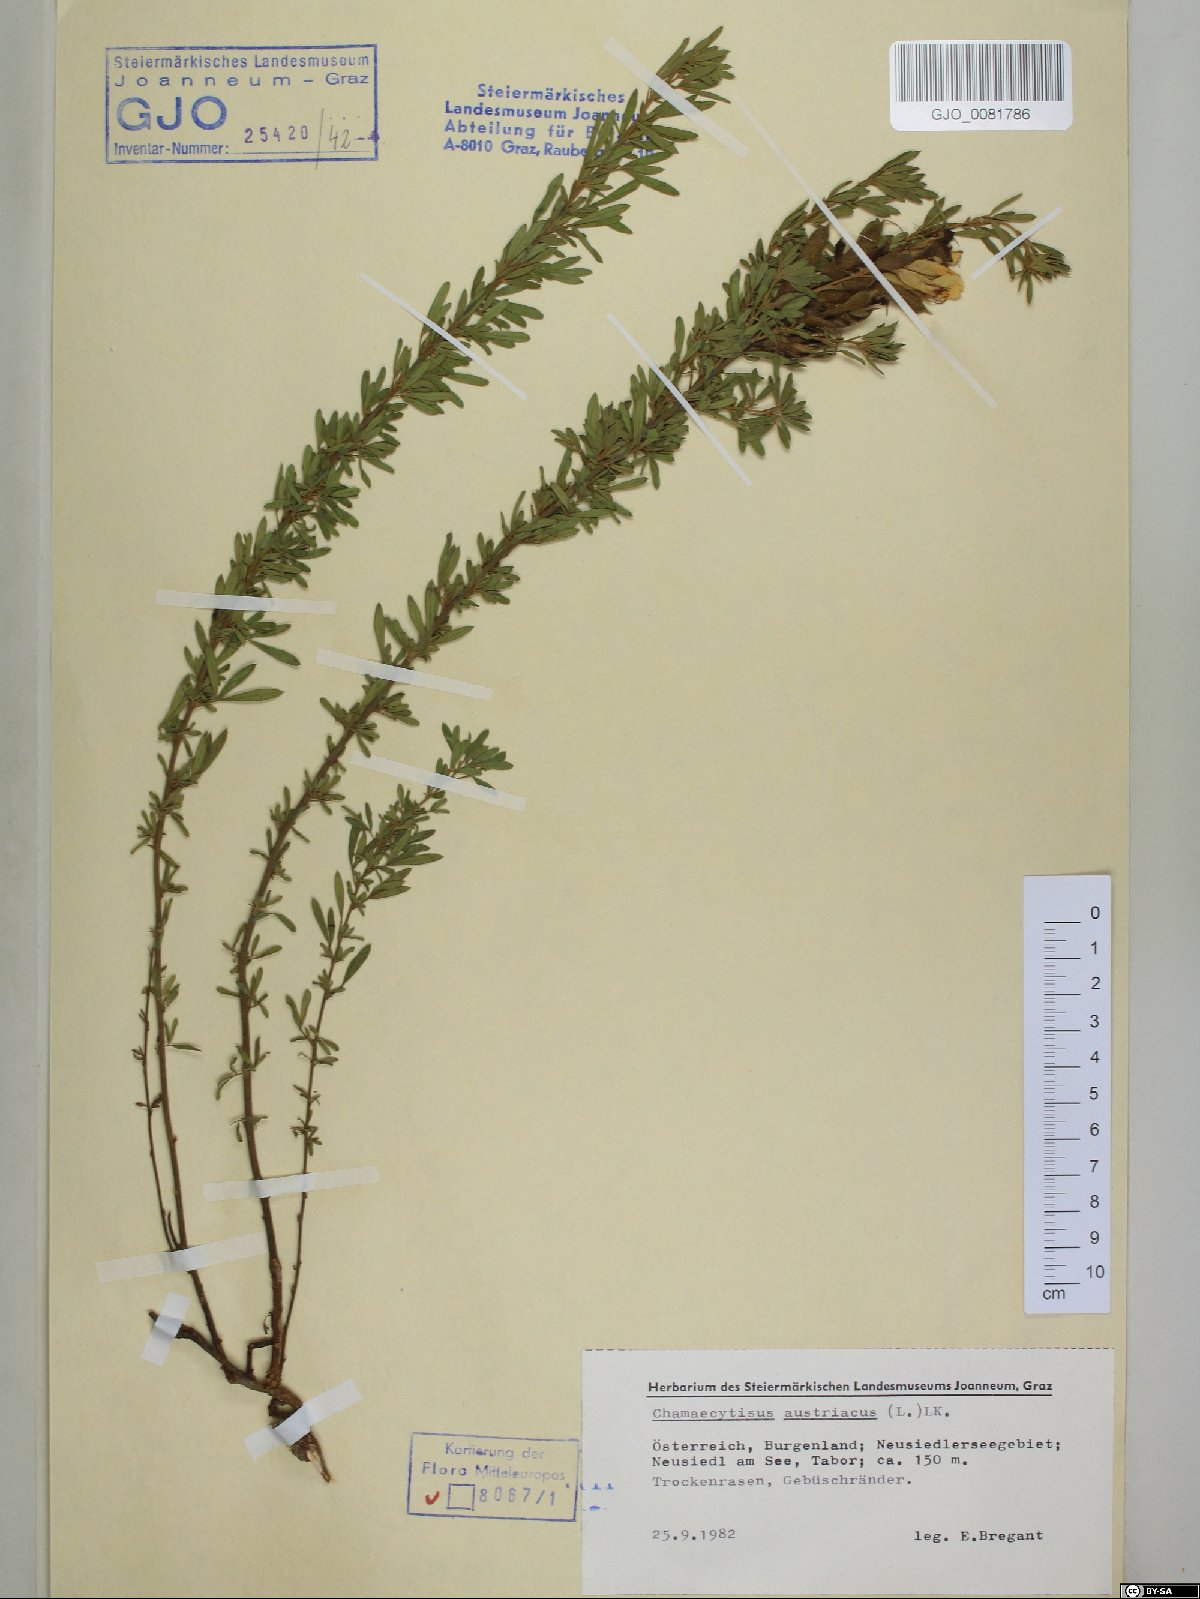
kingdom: Plantae
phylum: Tracheophyta
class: Magnoliopsida
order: Fabales
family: Fabaceae
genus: Chamaecytisus
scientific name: Chamaecytisus austriacus
